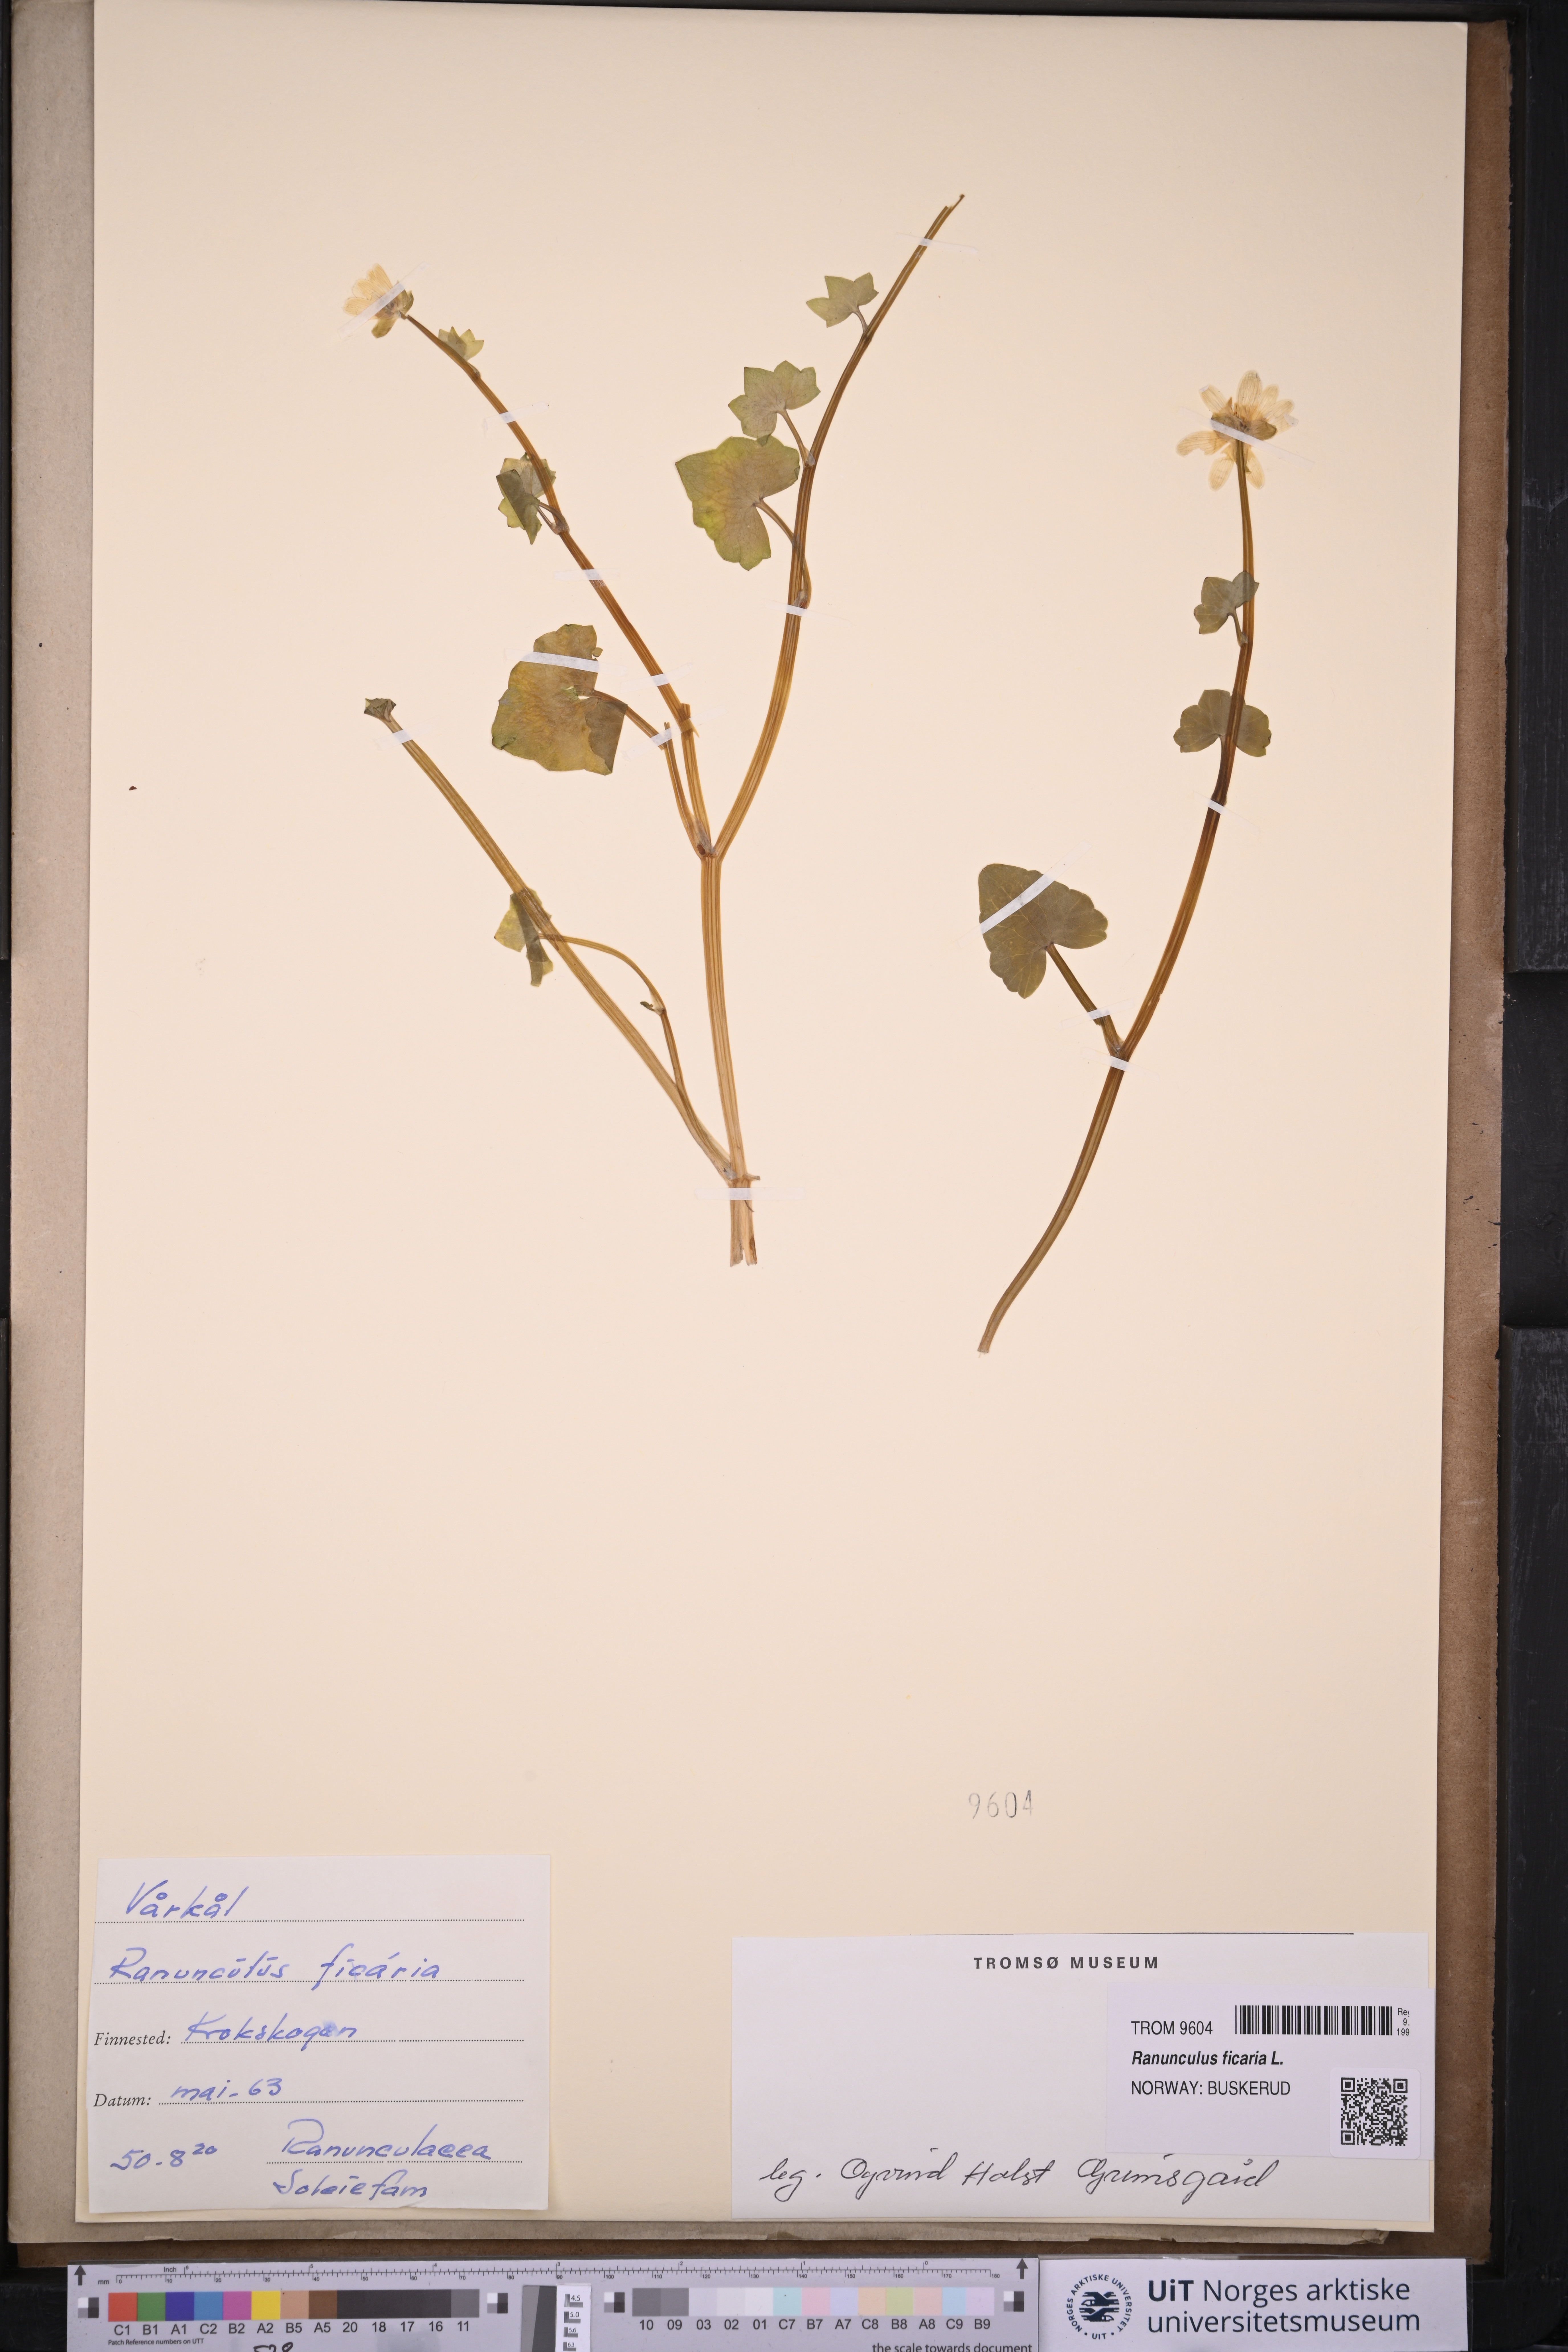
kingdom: Plantae
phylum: Tracheophyta
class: Magnoliopsida
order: Ranunculales
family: Ranunculaceae
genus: Ficaria
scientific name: Ficaria verna
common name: Lesser celandine
